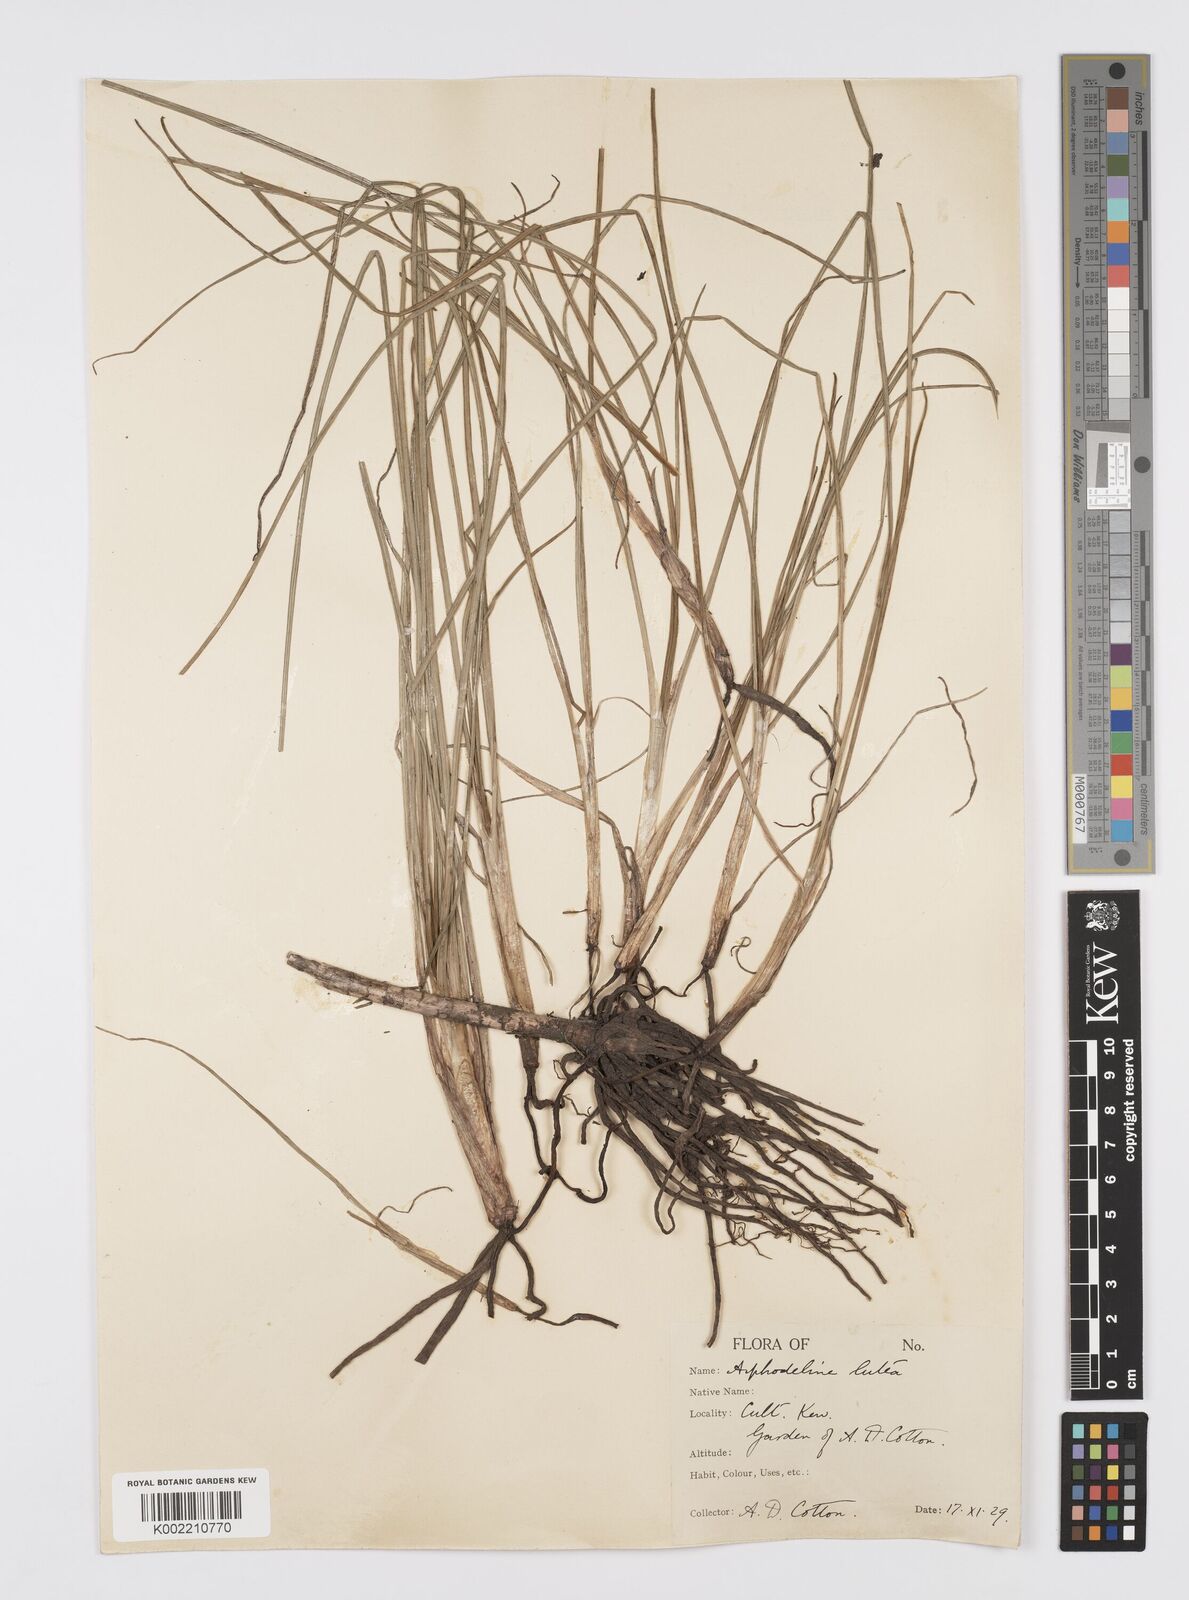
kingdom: Plantae
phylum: Tracheophyta
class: Liliopsida
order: Asparagales
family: Asphodelaceae
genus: Asphodeline
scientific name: Asphodeline lutea
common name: Yellow asphodel
